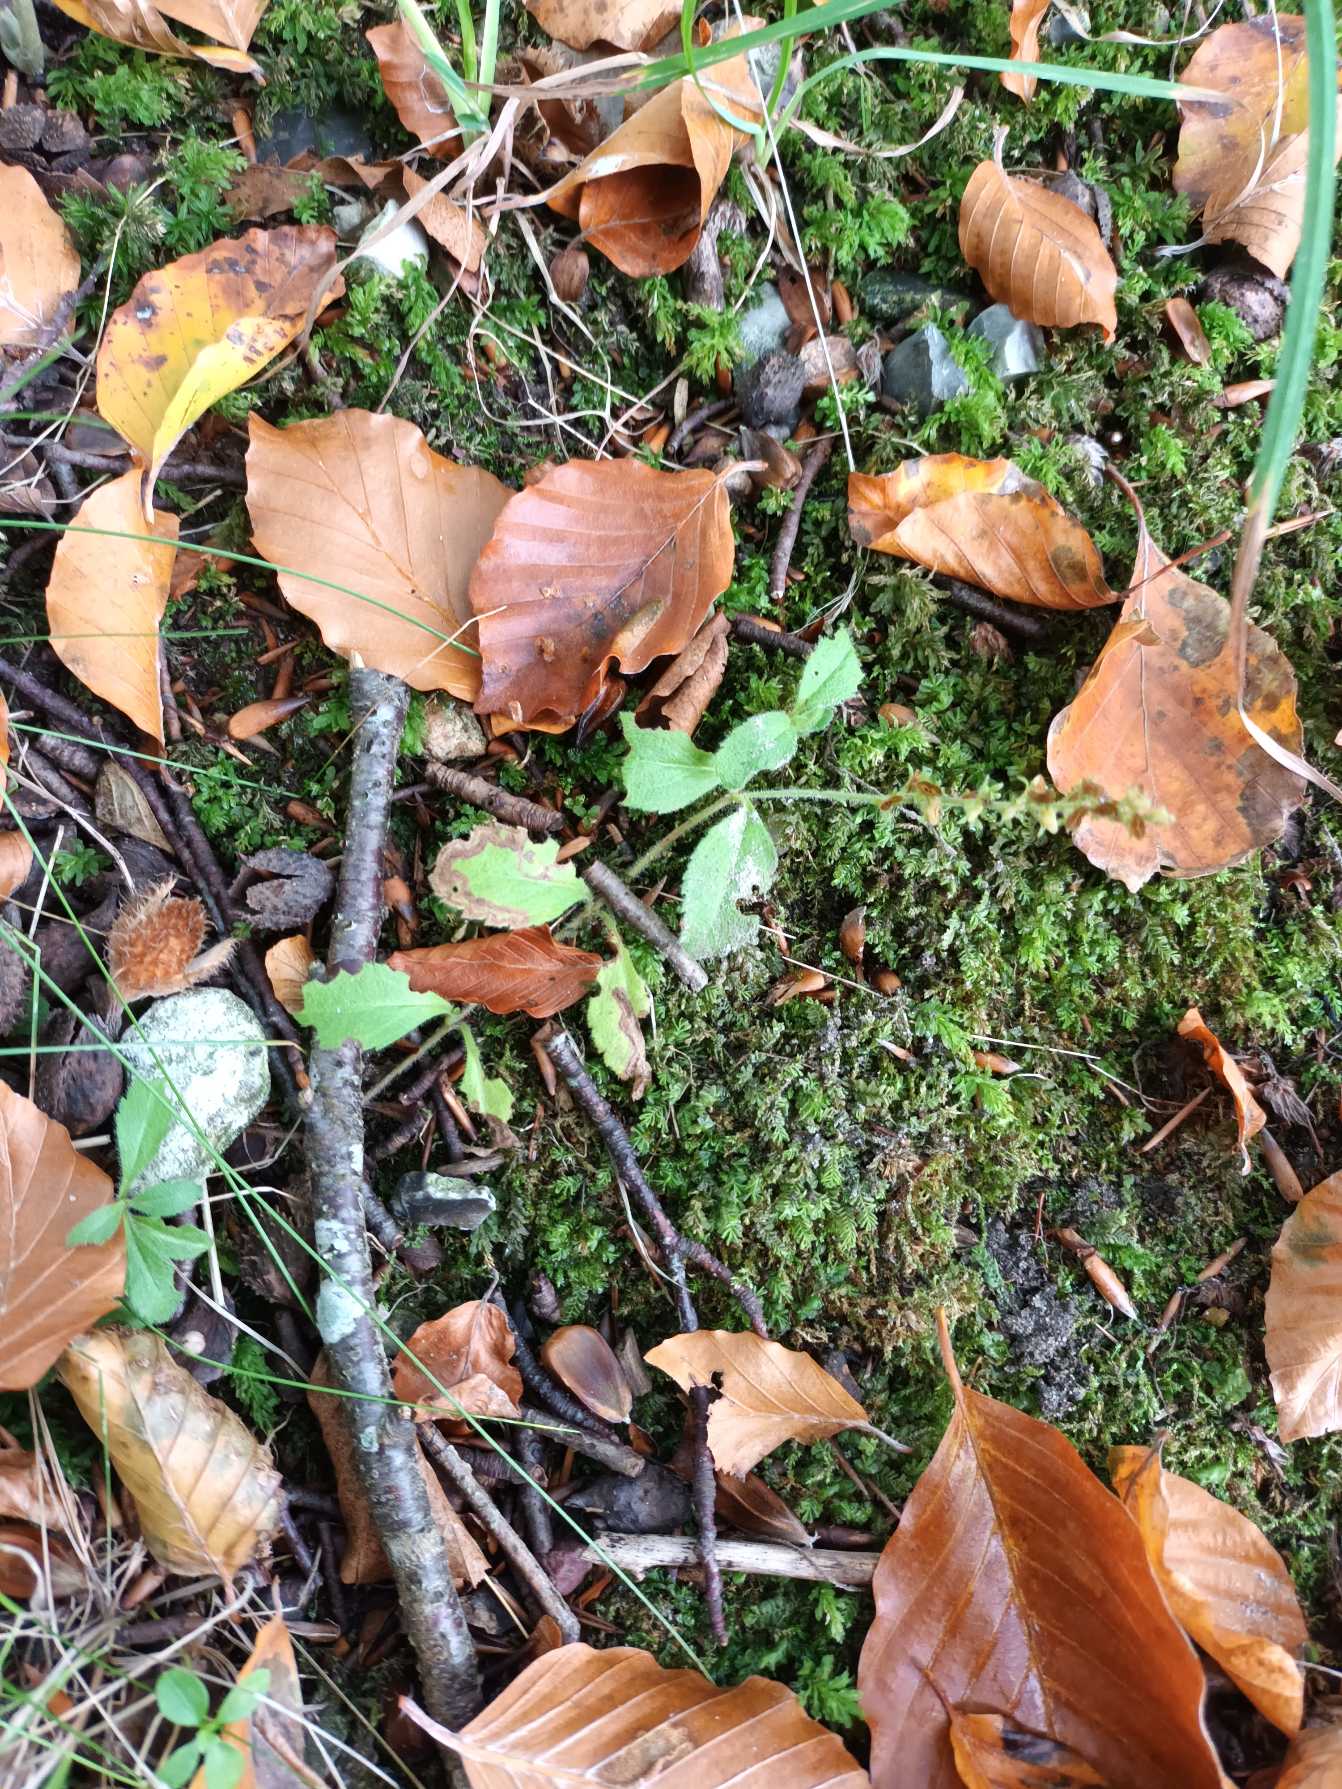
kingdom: Plantae
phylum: Tracheophyta
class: Magnoliopsida
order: Lamiales
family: Plantaginaceae
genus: Veronica
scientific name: Veronica officinalis
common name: Læge-ærenpris
